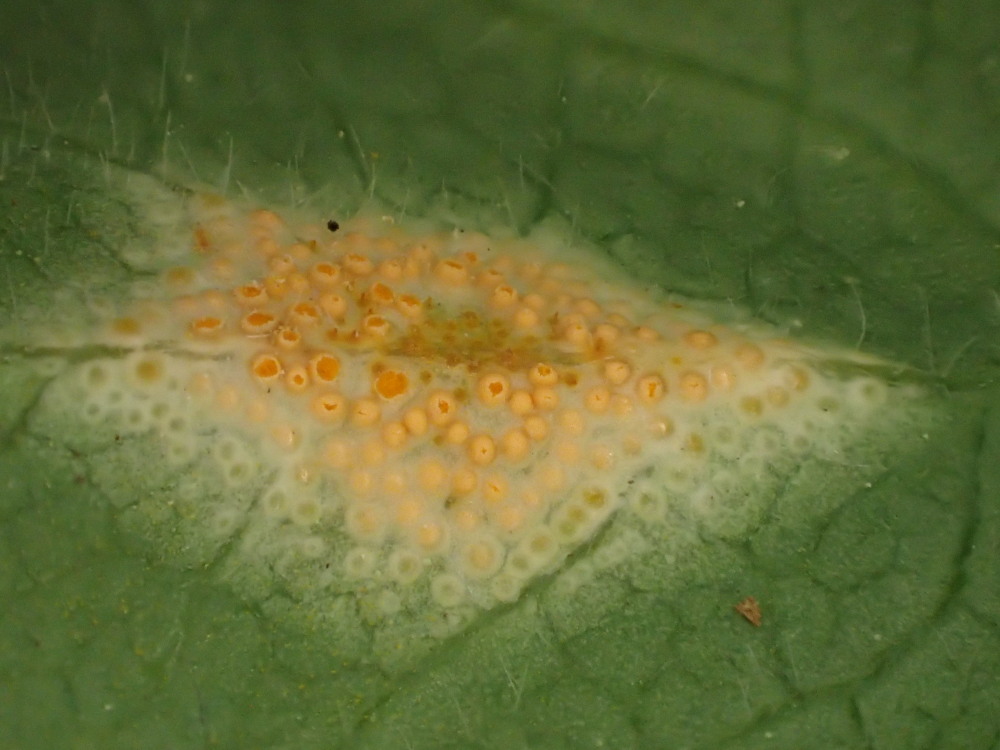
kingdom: Fungi
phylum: Basidiomycota
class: Pucciniomycetes
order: Pucciniales
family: Pucciniaceae
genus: Puccinia
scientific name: Puccinia festucae
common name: gedeblad-tvecellerust
